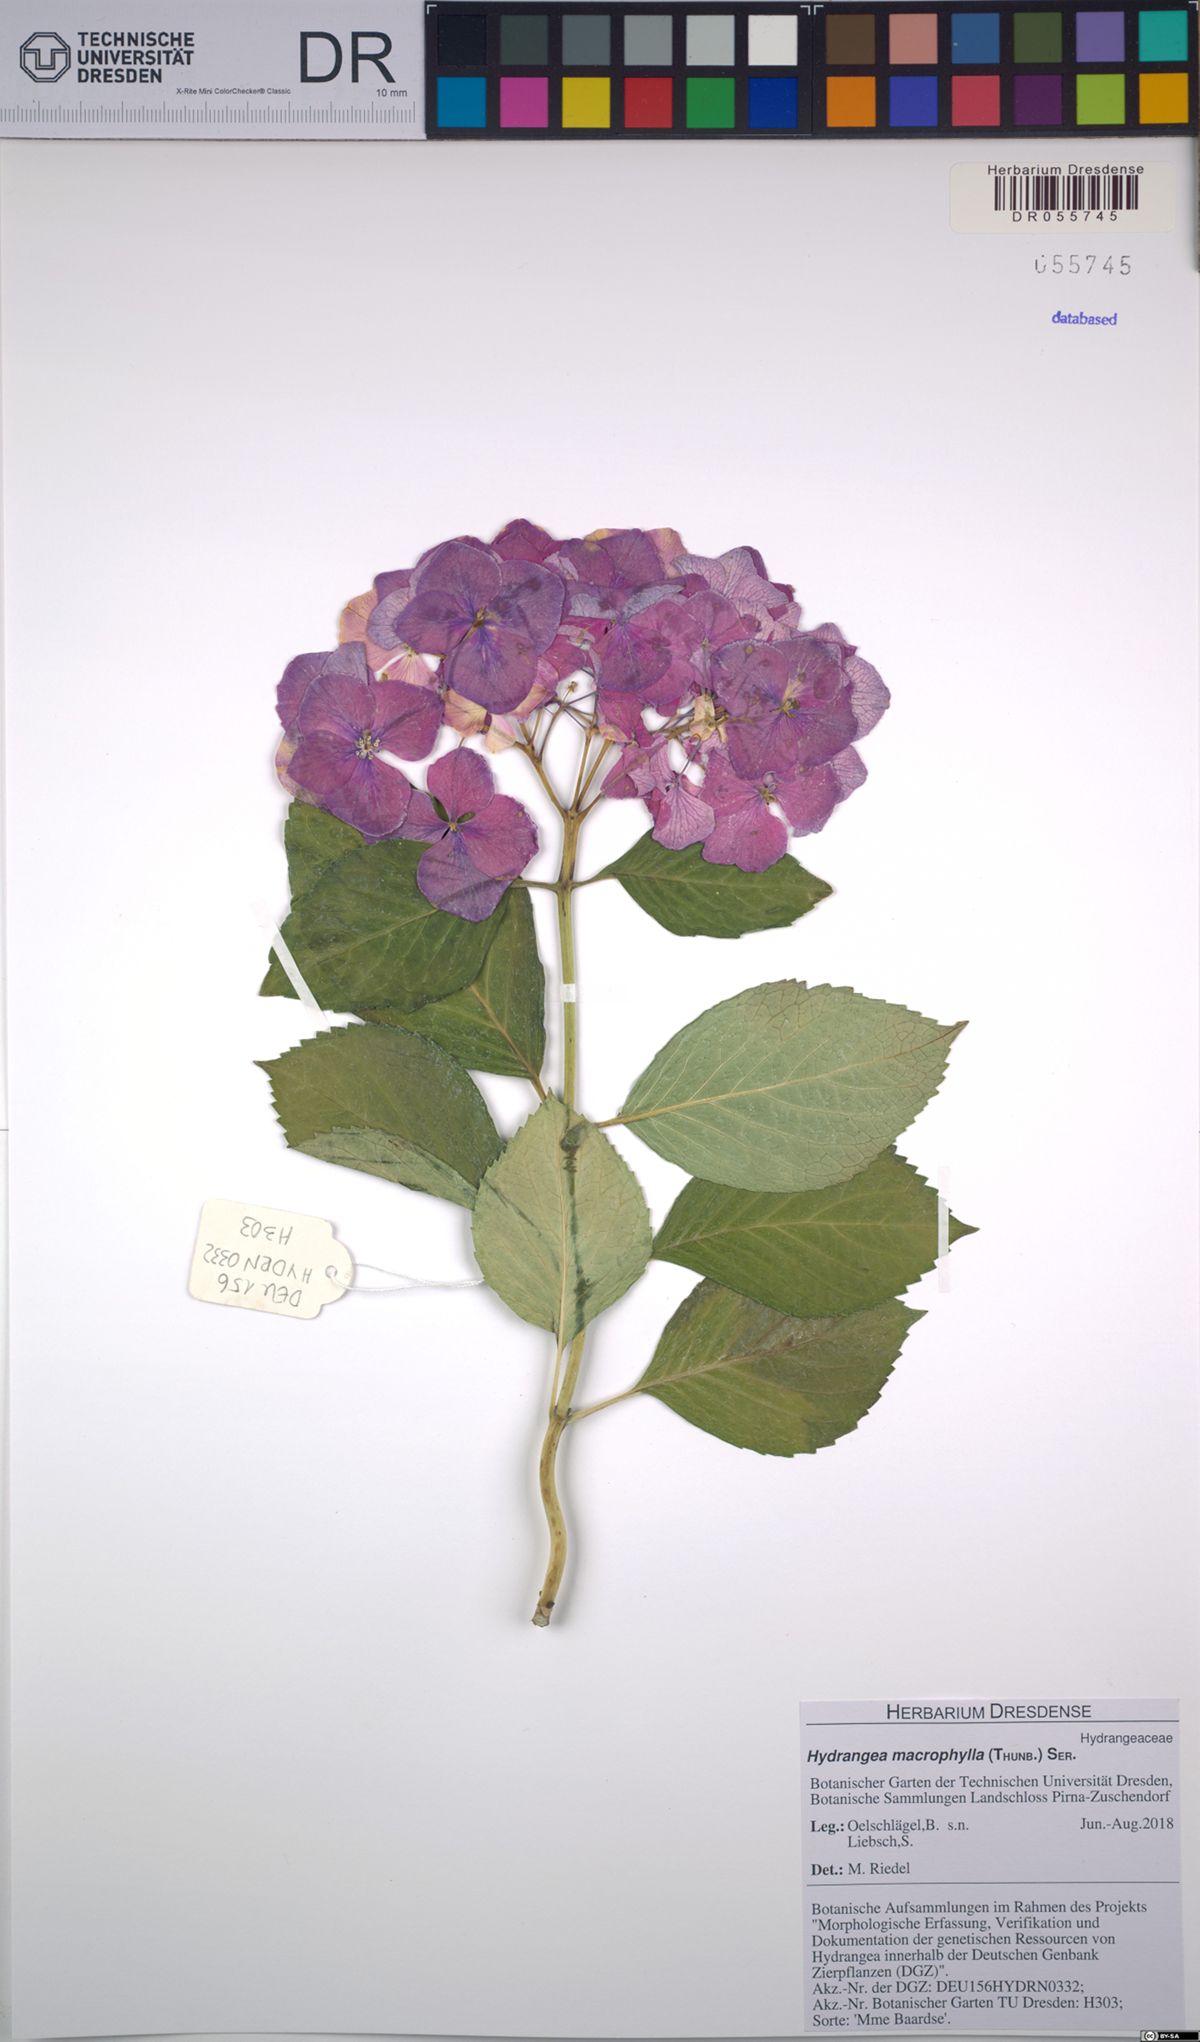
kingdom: Plantae
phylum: Tracheophyta
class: Magnoliopsida
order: Cornales
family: Hydrangeaceae
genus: Hydrangea
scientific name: Hydrangea macrophylla
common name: Hydrangea
